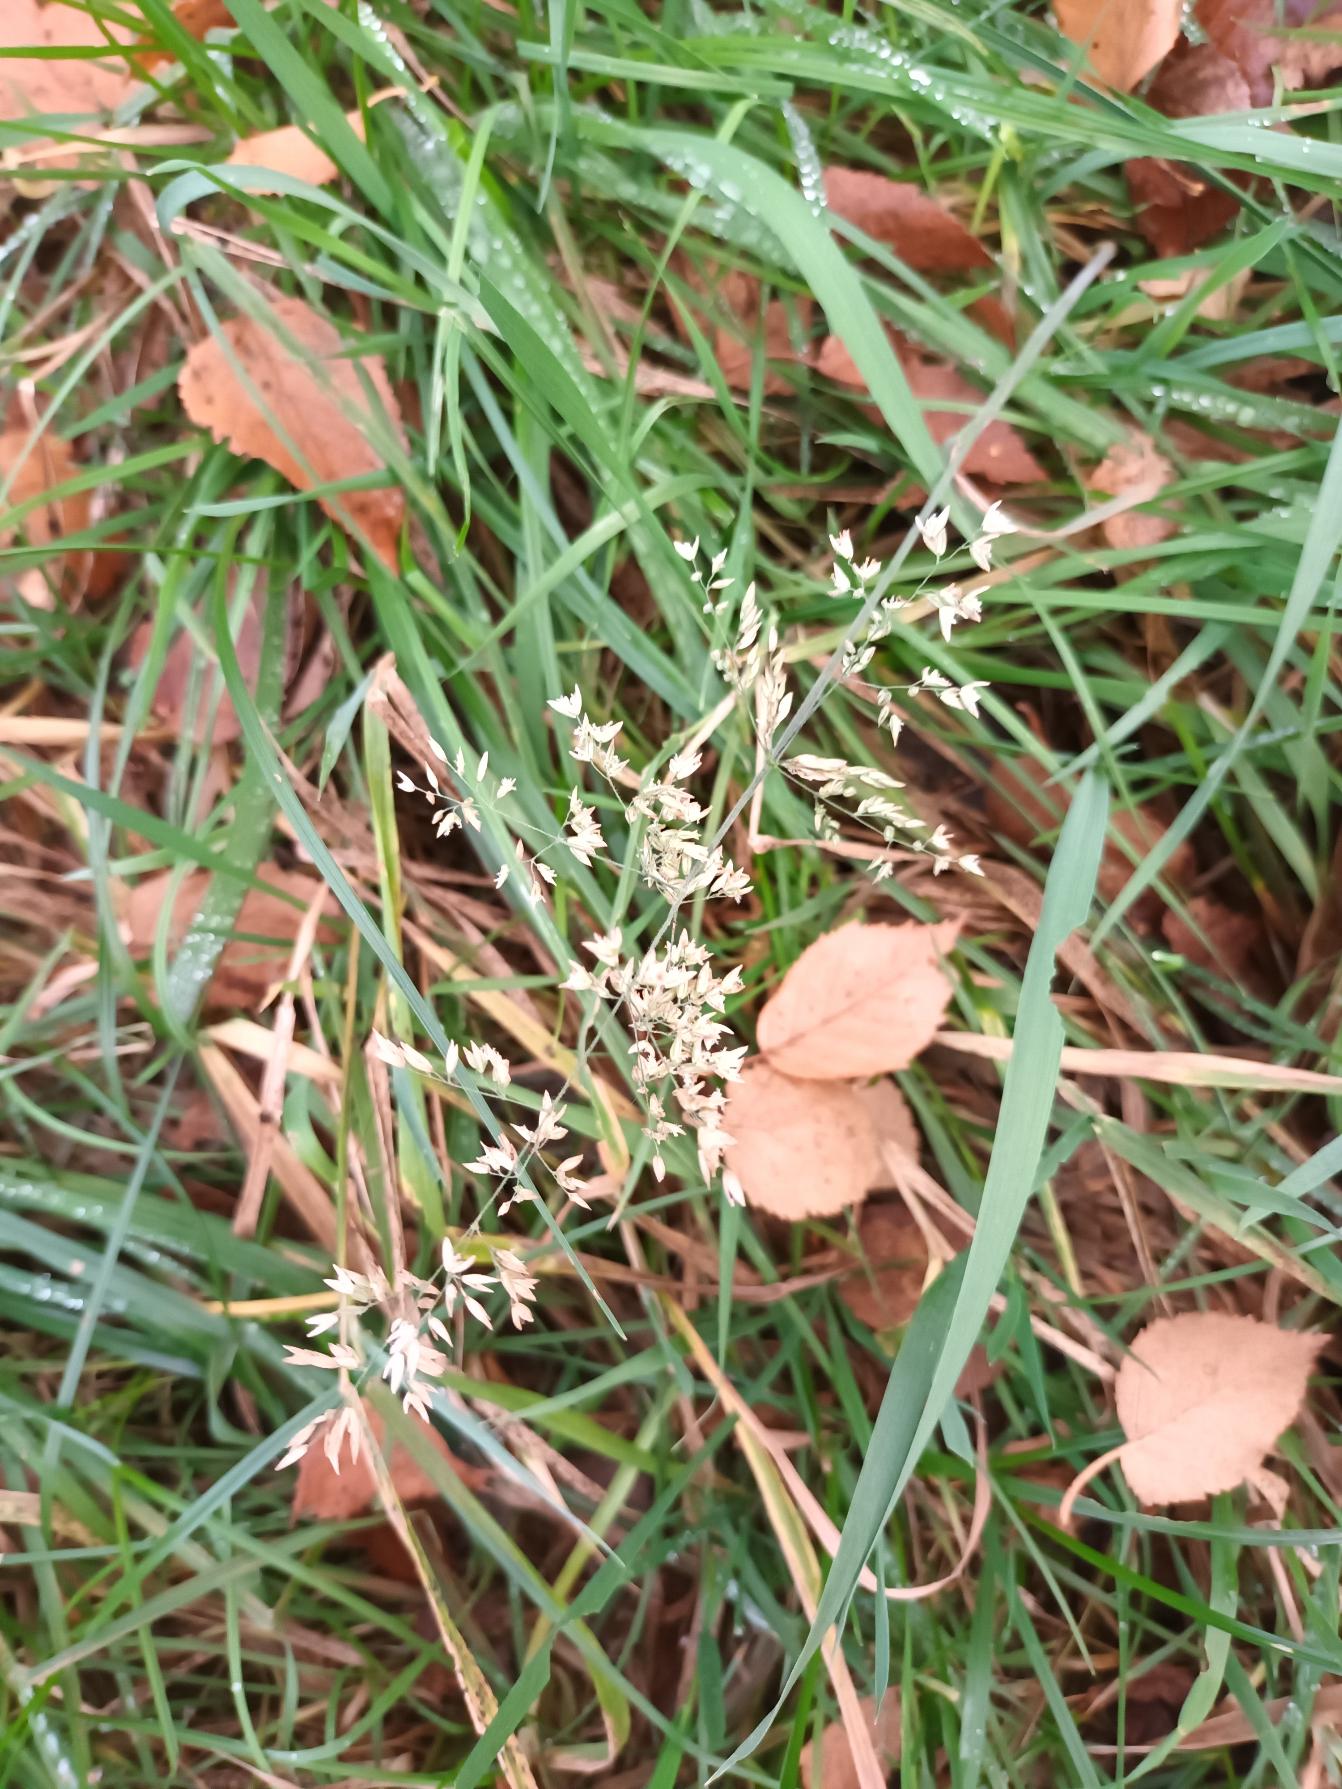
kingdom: Plantae
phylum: Tracheophyta
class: Liliopsida
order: Poales
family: Poaceae
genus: Holcus
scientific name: Holcus lanatus
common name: Fløjlsgræs
